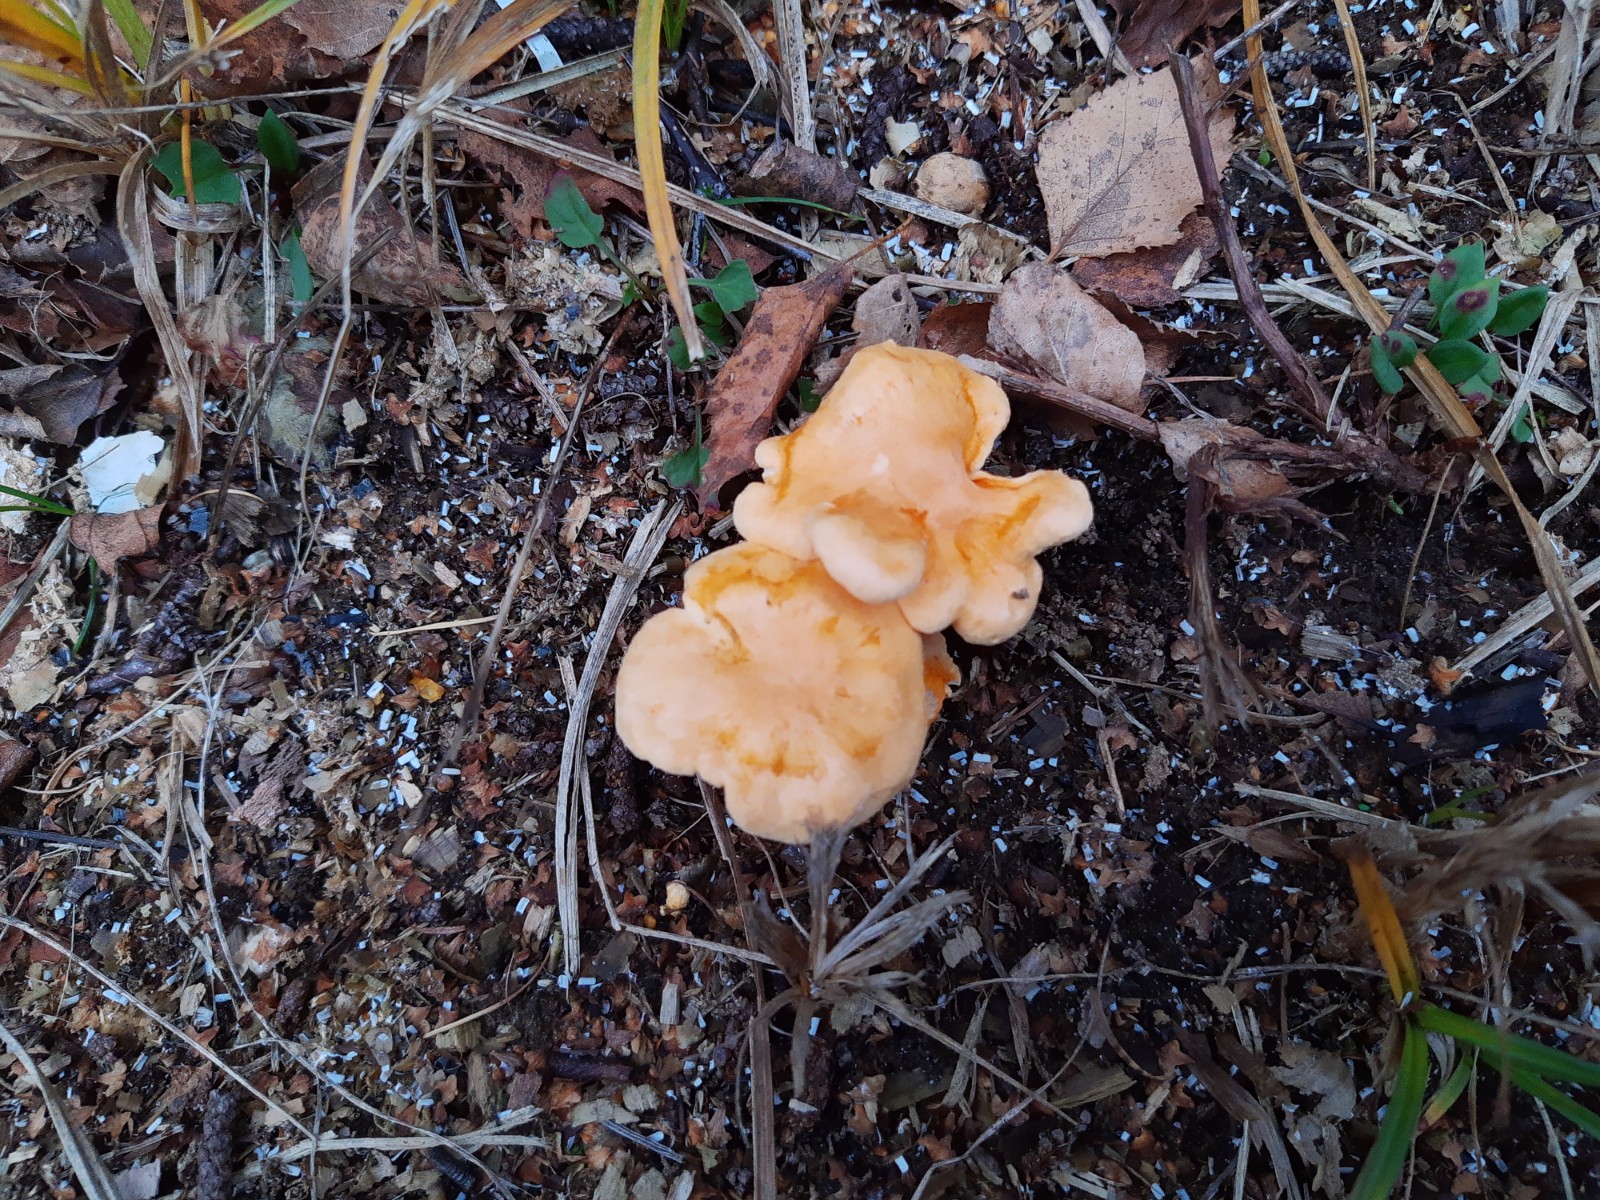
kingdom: Fungi
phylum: Basidiomycota
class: Agaricomycetes
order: Boletales
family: Hygrophoropsidaceae
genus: Hygrophoropsis
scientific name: Hygrophoropsis aurantiaca
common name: almindelig orangekantarel
